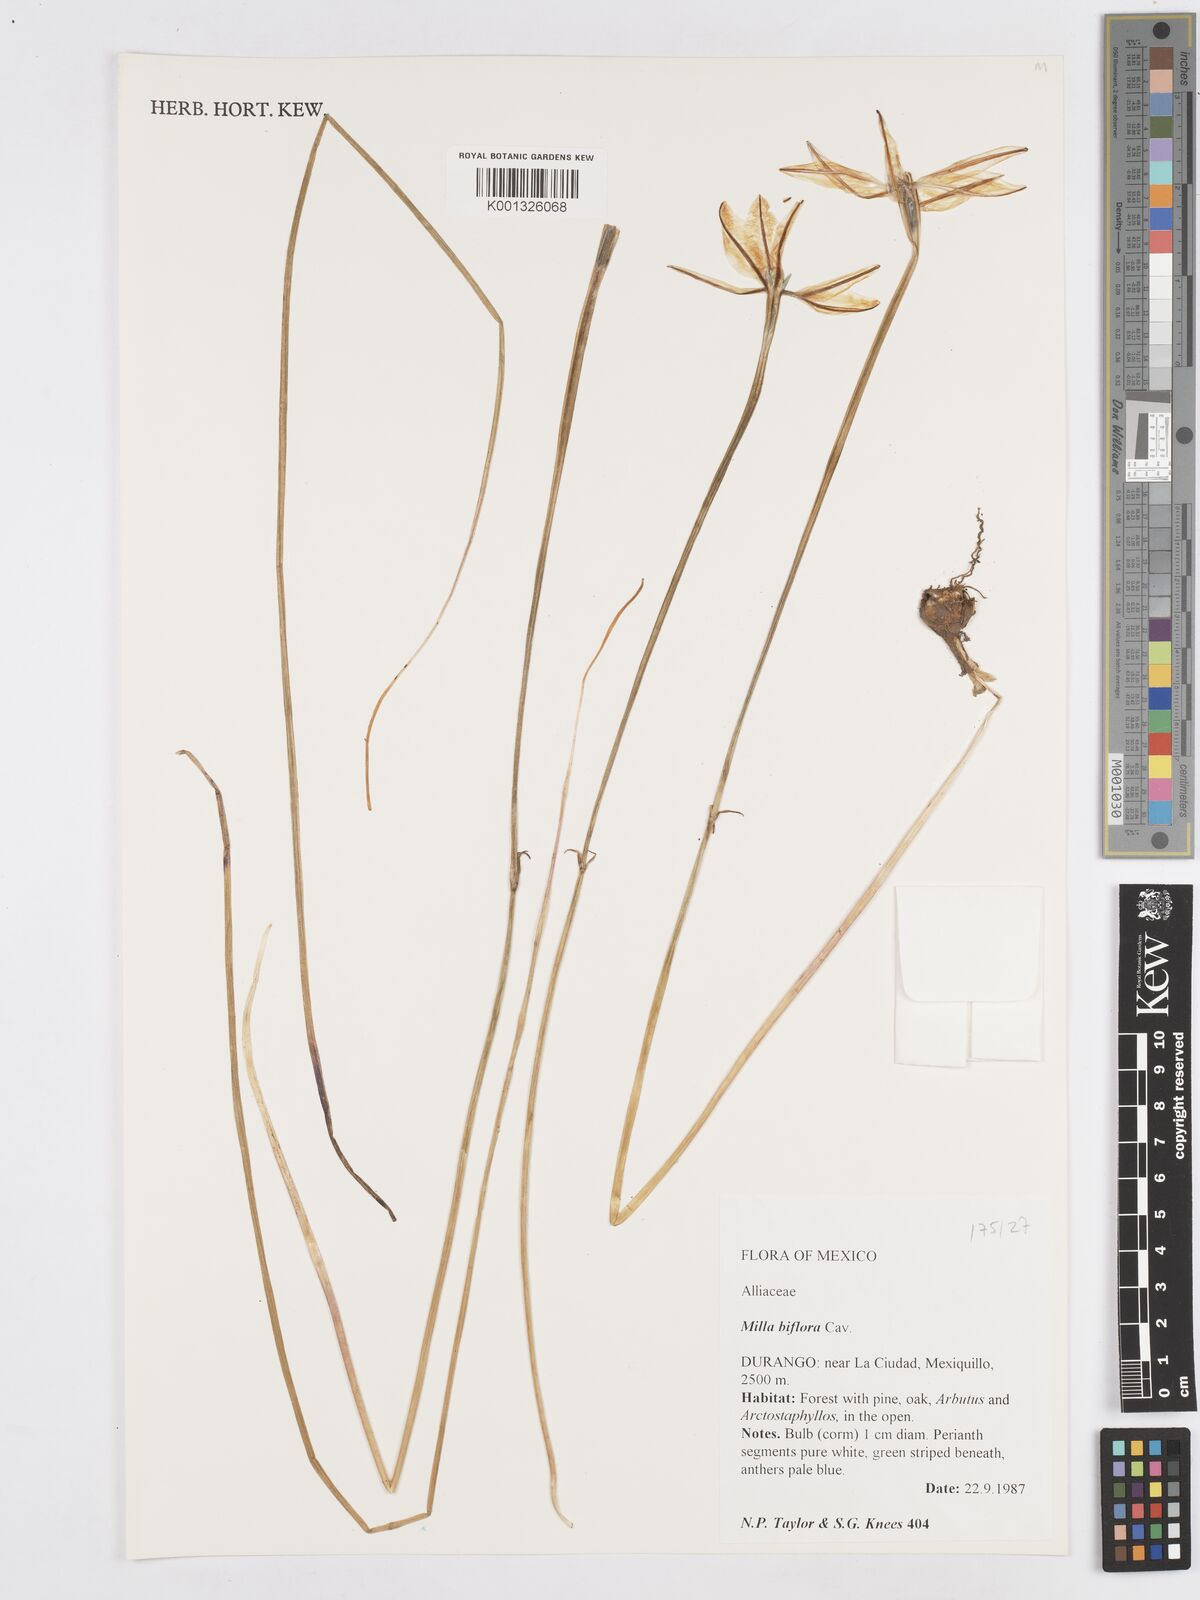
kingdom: Plantae
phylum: Tracheophyta
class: Liliopsida
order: Asparagales
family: Asparagaceae
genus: Milla
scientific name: Milla biflora
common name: Mexican-star
